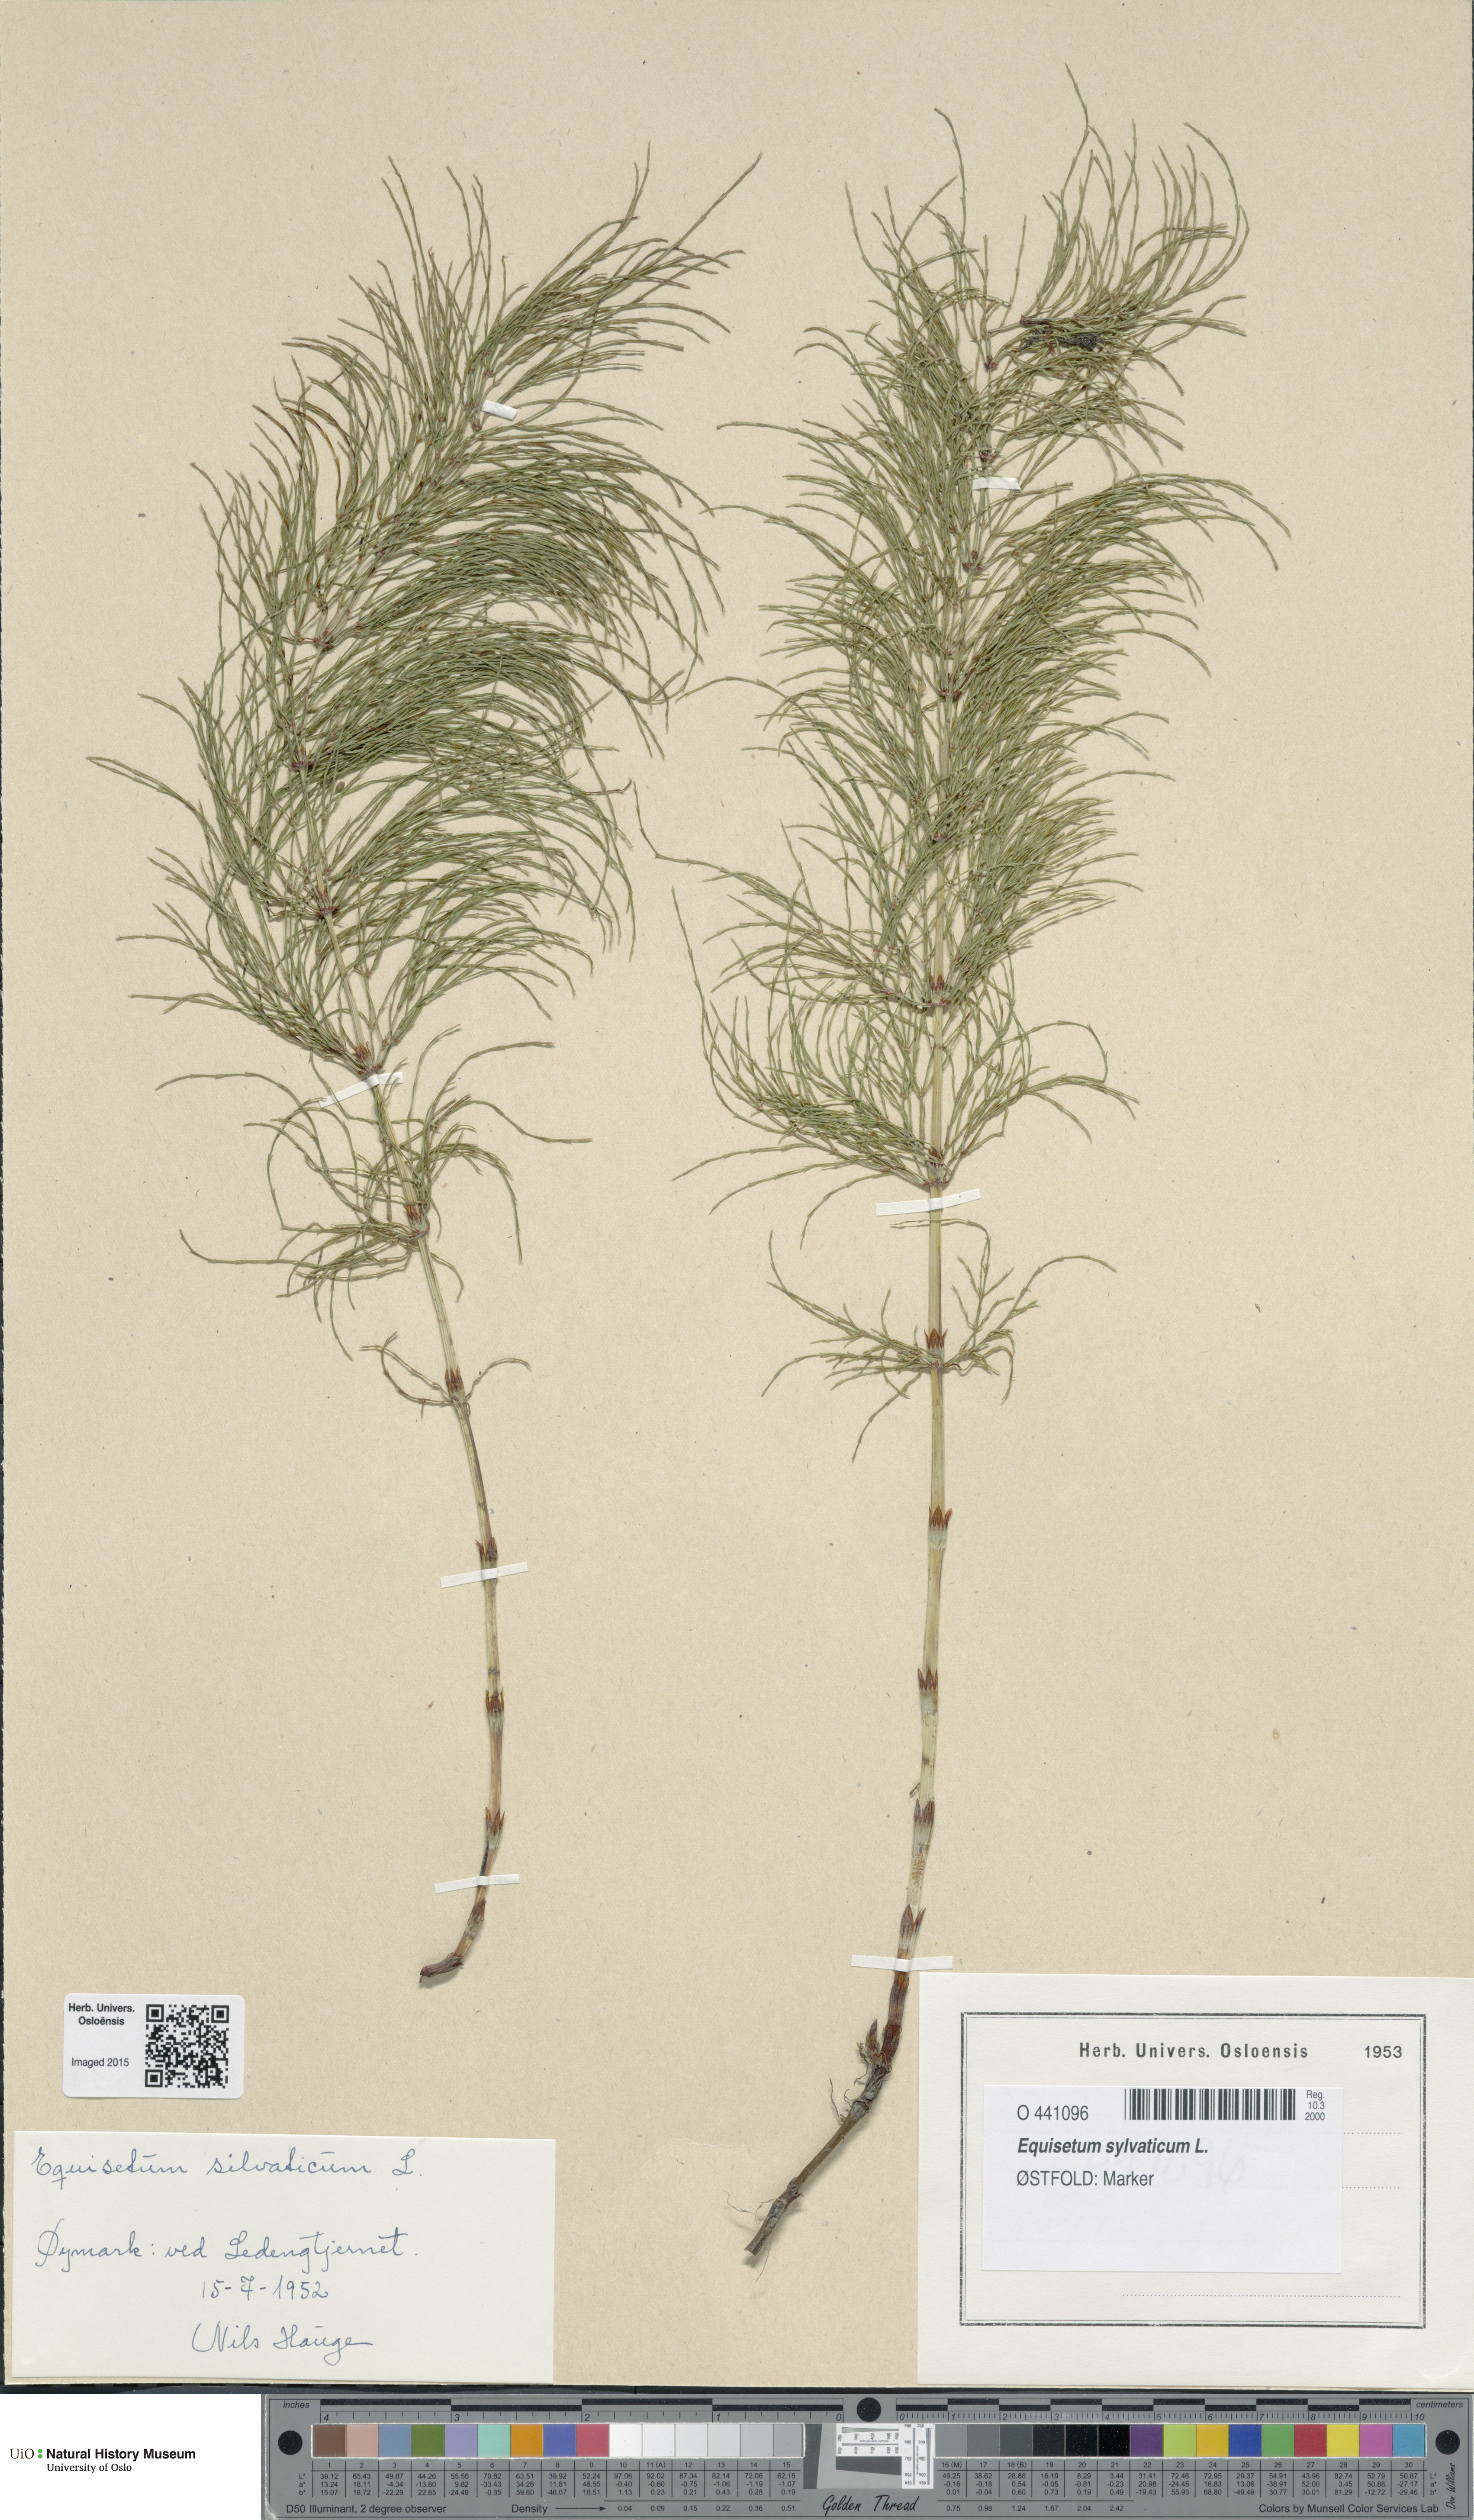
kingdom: Plantae
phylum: Tracheophyta
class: Polypodiopsida
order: Equisetales
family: Equisetaceae
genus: Equisetum
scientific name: Equisetum sylvaticum
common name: Wood horsetail
